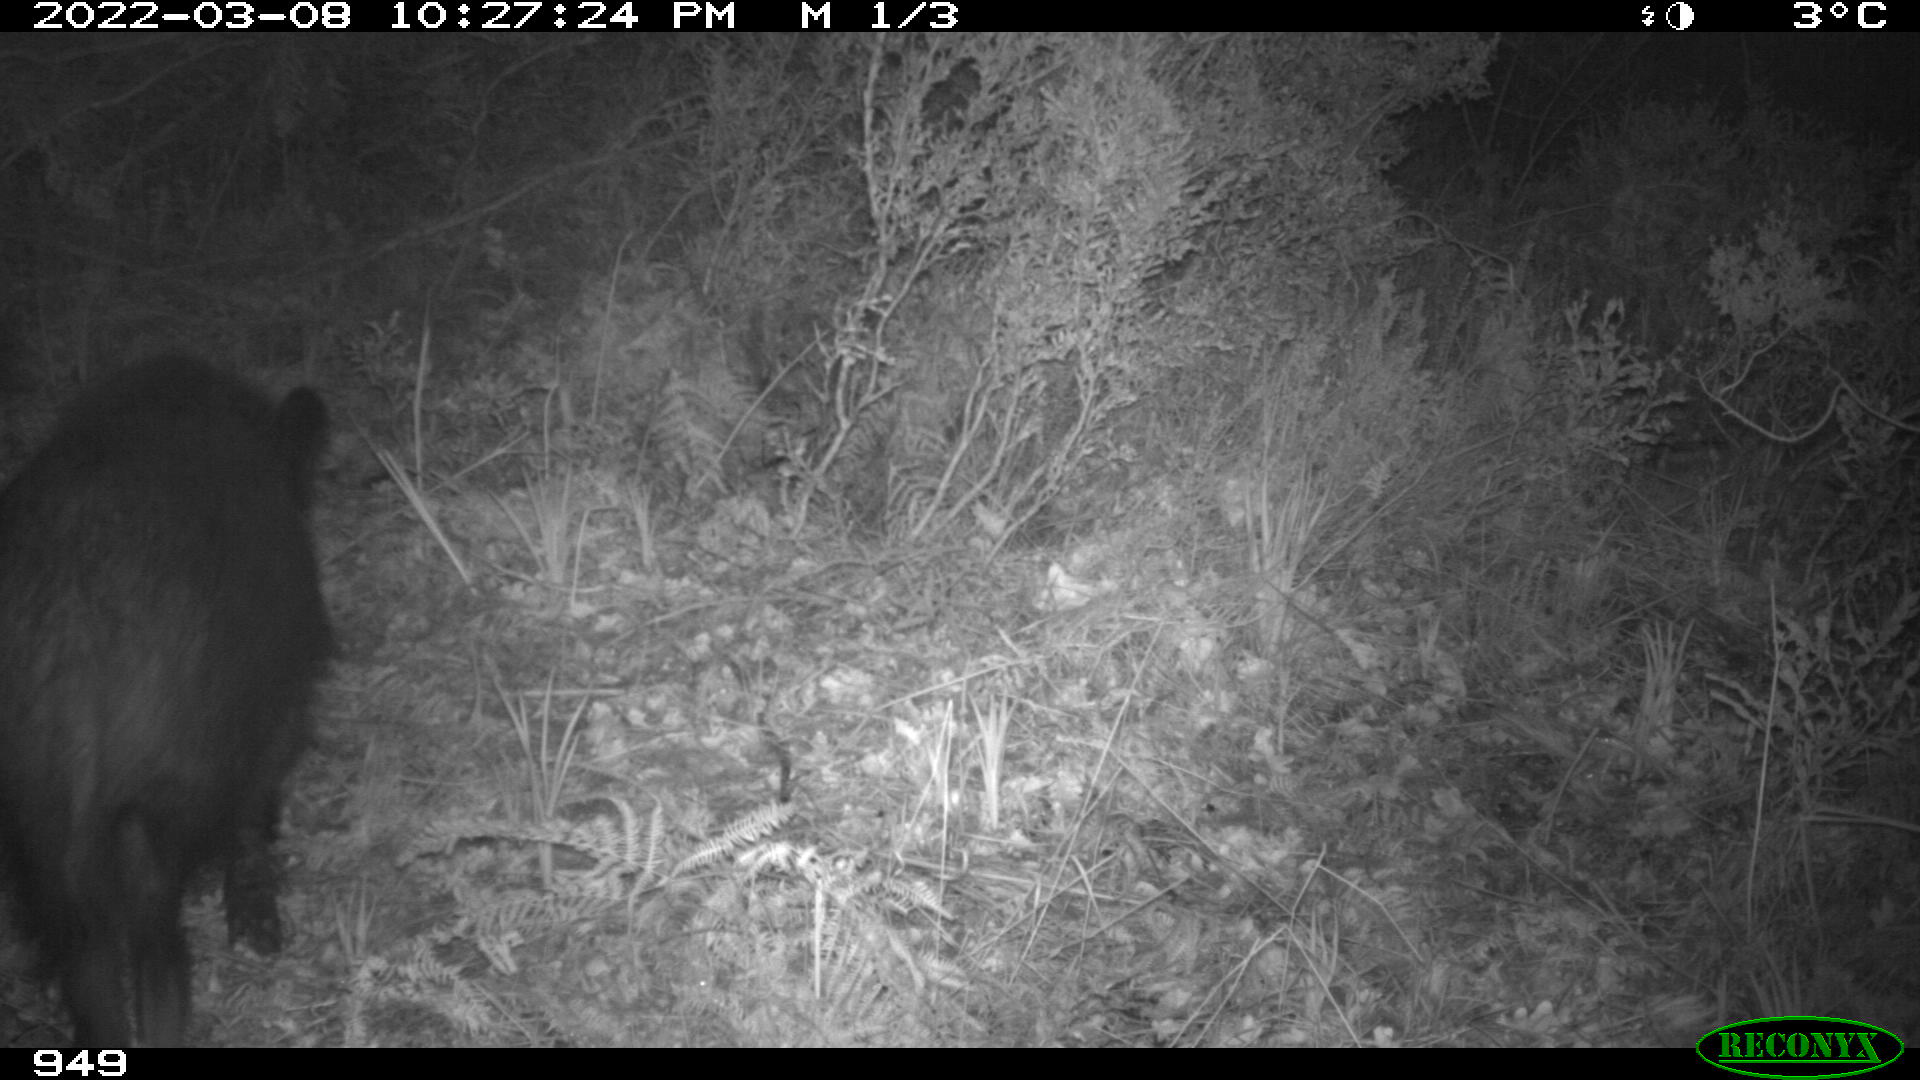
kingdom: Animalia
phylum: Chordata
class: Mammalia
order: Artiodactyla
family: Suidae
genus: Sus
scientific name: Sus scrofa
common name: Wild boar
